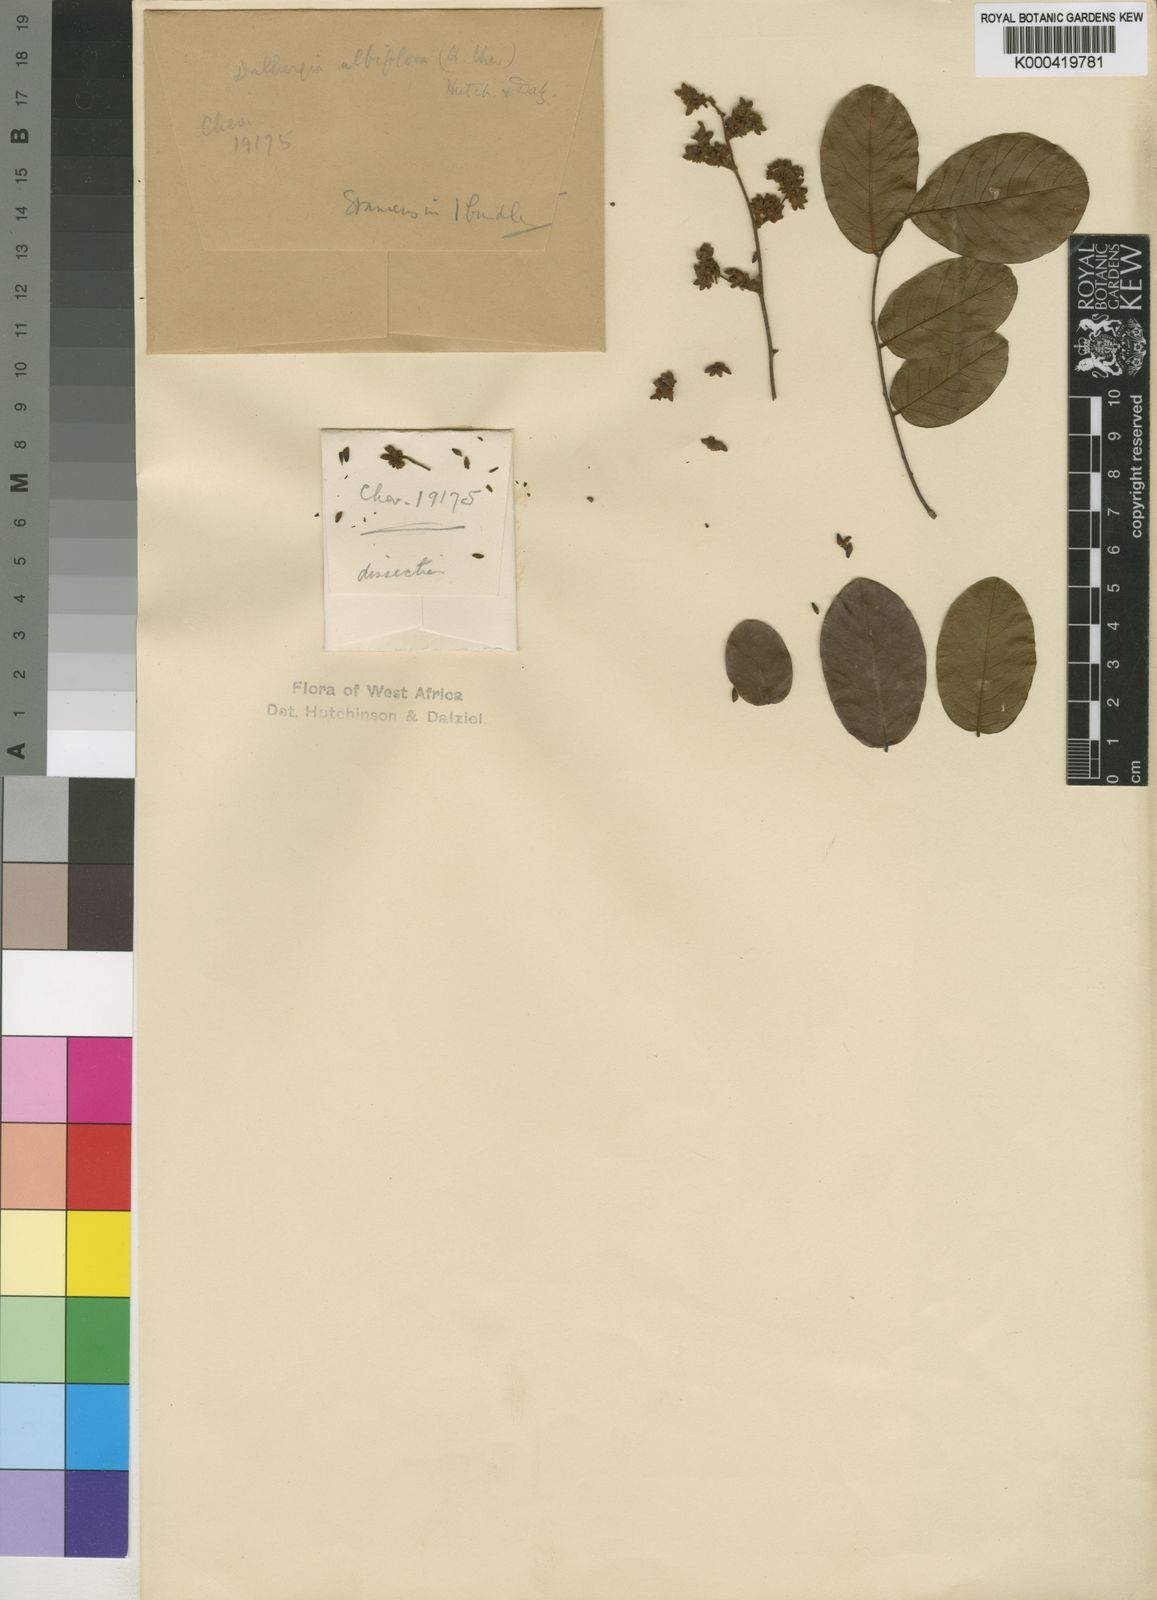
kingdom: Plantae
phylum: Tracheophyta
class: Magnoliopsida
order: Fabales
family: Fabaceae
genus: Dalbergia
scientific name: Dalbergia albiflora
